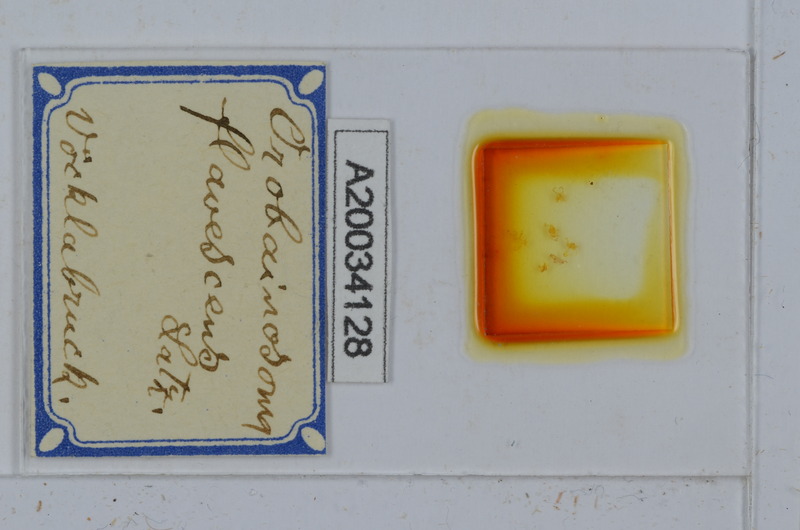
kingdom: Animalia
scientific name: Animalia
